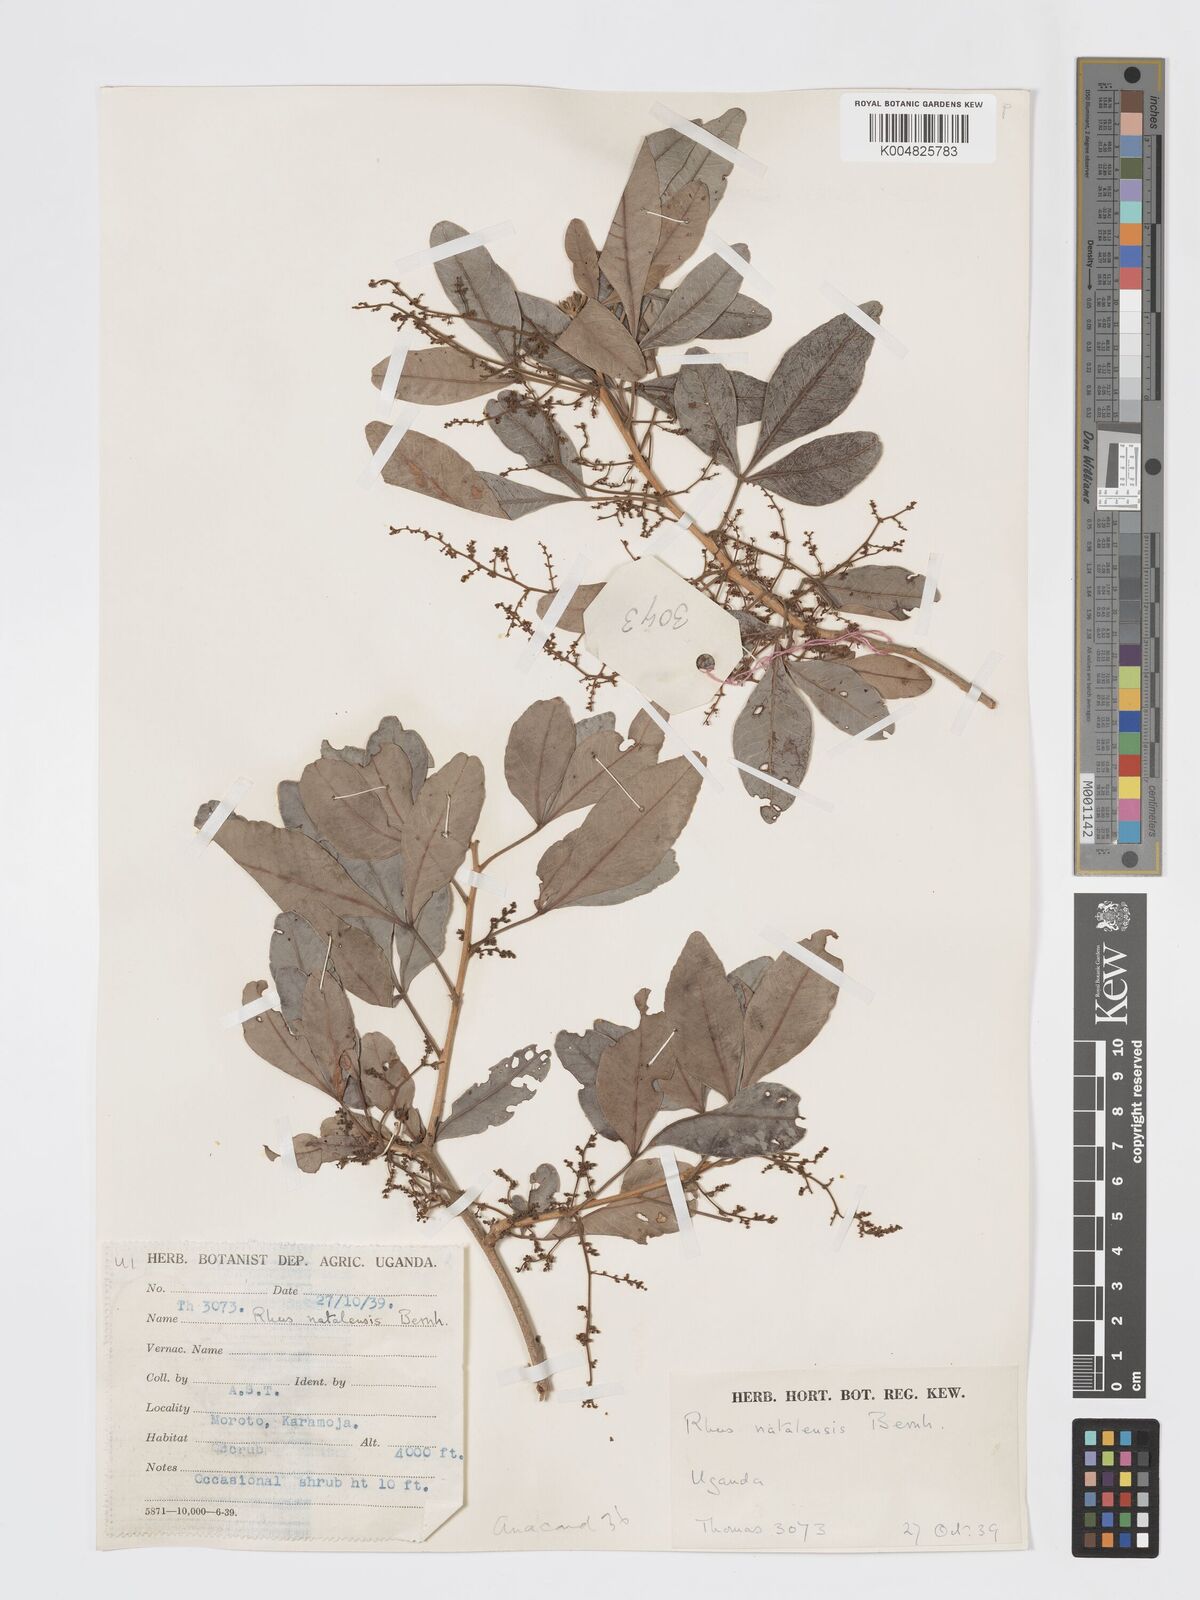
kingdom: Plantae
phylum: Tracheophyta
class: Magnoliopsida
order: Sapindales
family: Anacardiaceae
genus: Searsia
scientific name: Searsia natalensis
